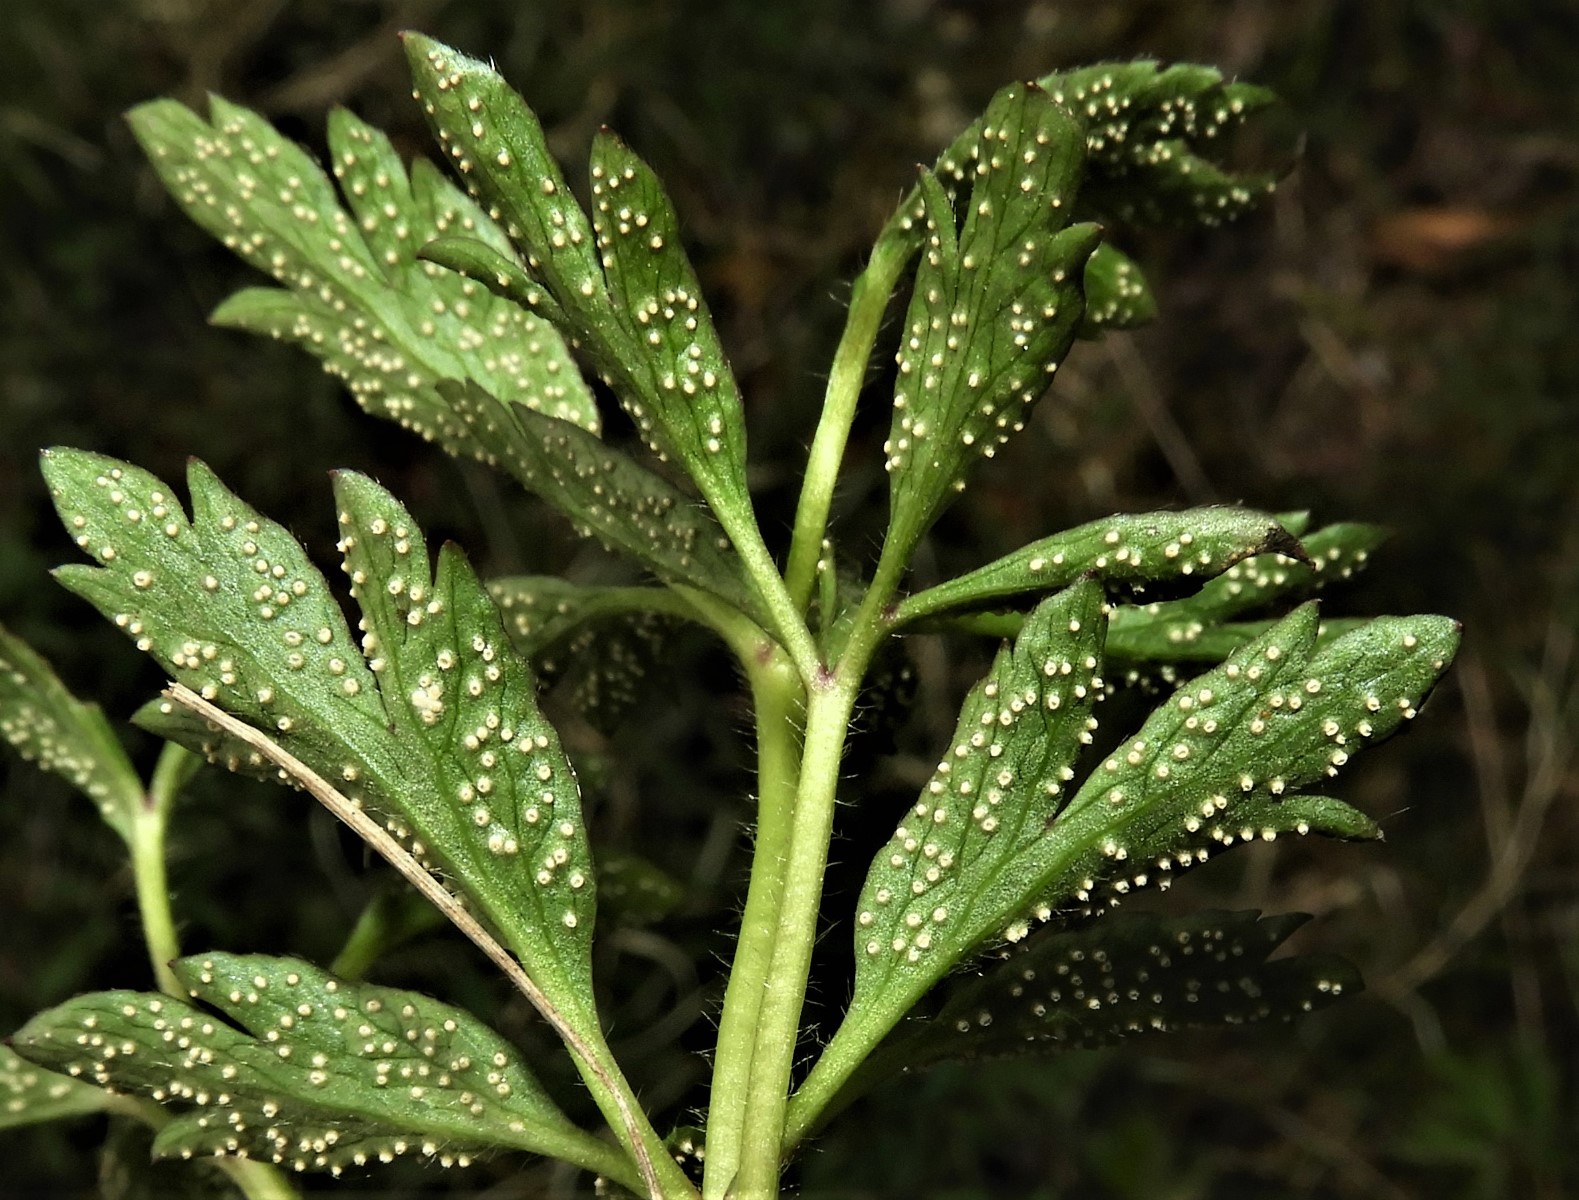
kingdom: Fungi
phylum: Basidiomycota
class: Pucciniomycetes
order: Pucciniales
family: Ochropsoraceae
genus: Ochropsora
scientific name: Ochropsora ariae
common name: anemone-okkerpletrust
